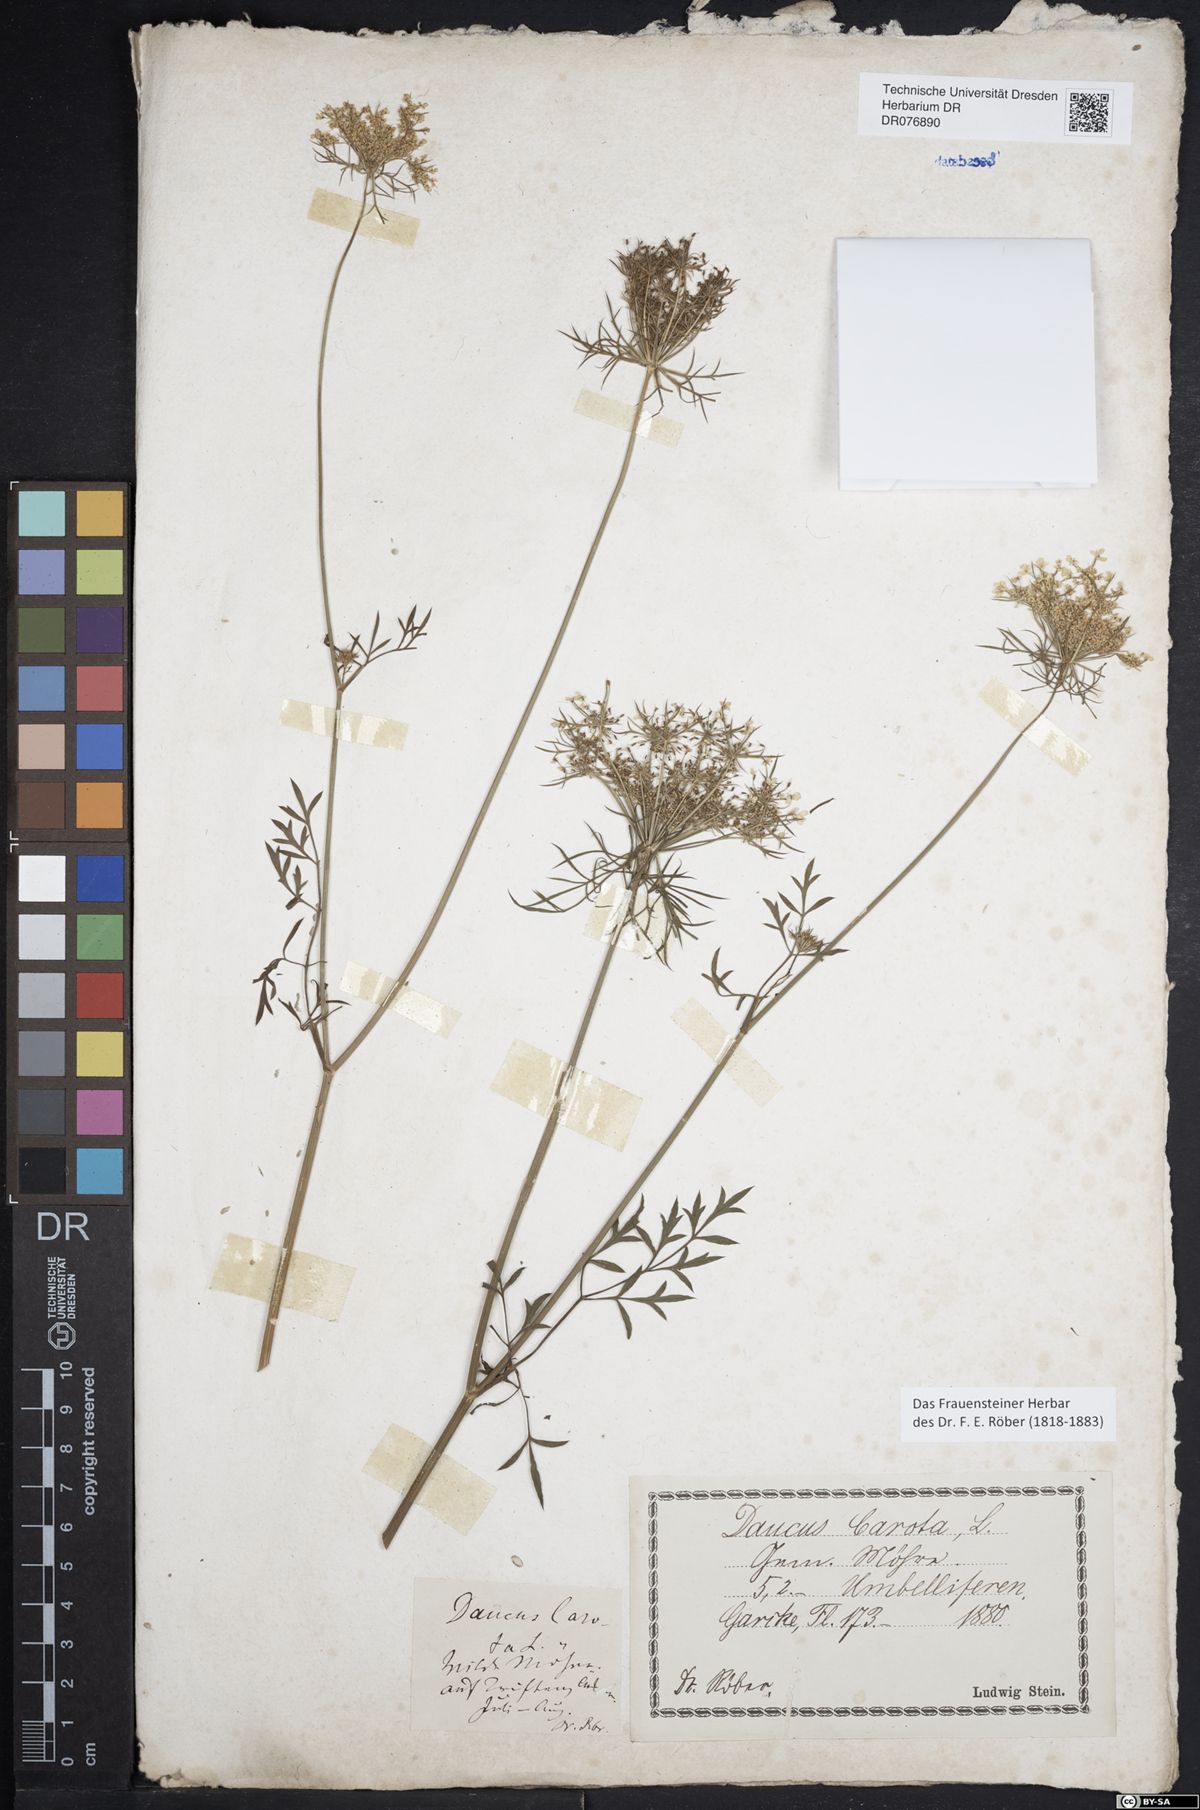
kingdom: Plantae
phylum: Tracheophyta
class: Magnoliopsida
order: Apiales
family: Apiaceae
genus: Daucus
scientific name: Daucus carota
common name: Wild carrot
